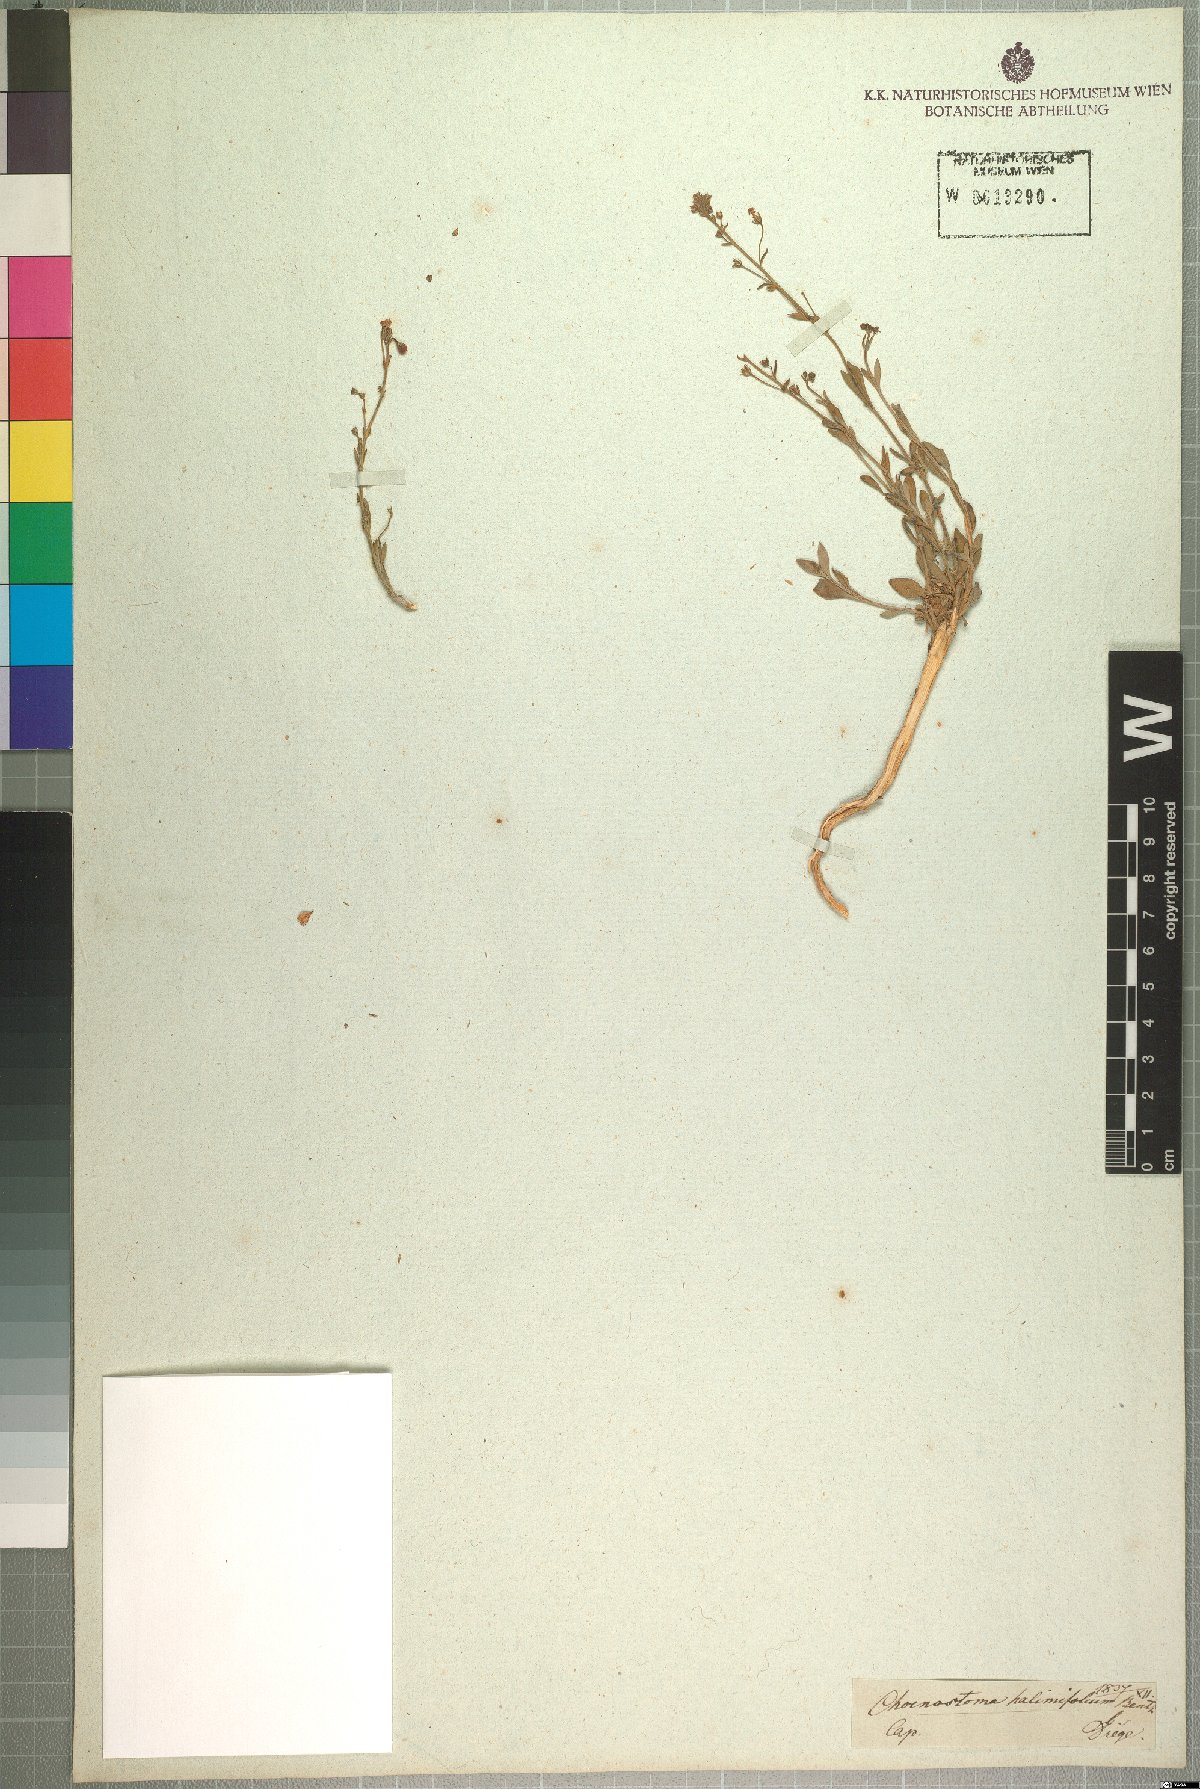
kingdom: Plantae
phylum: Tracheophyta
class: Magnoliopsida
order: Lamiales
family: Scrophulariaceae
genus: Chaenostoma
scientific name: Chaenostoma halimifolium
